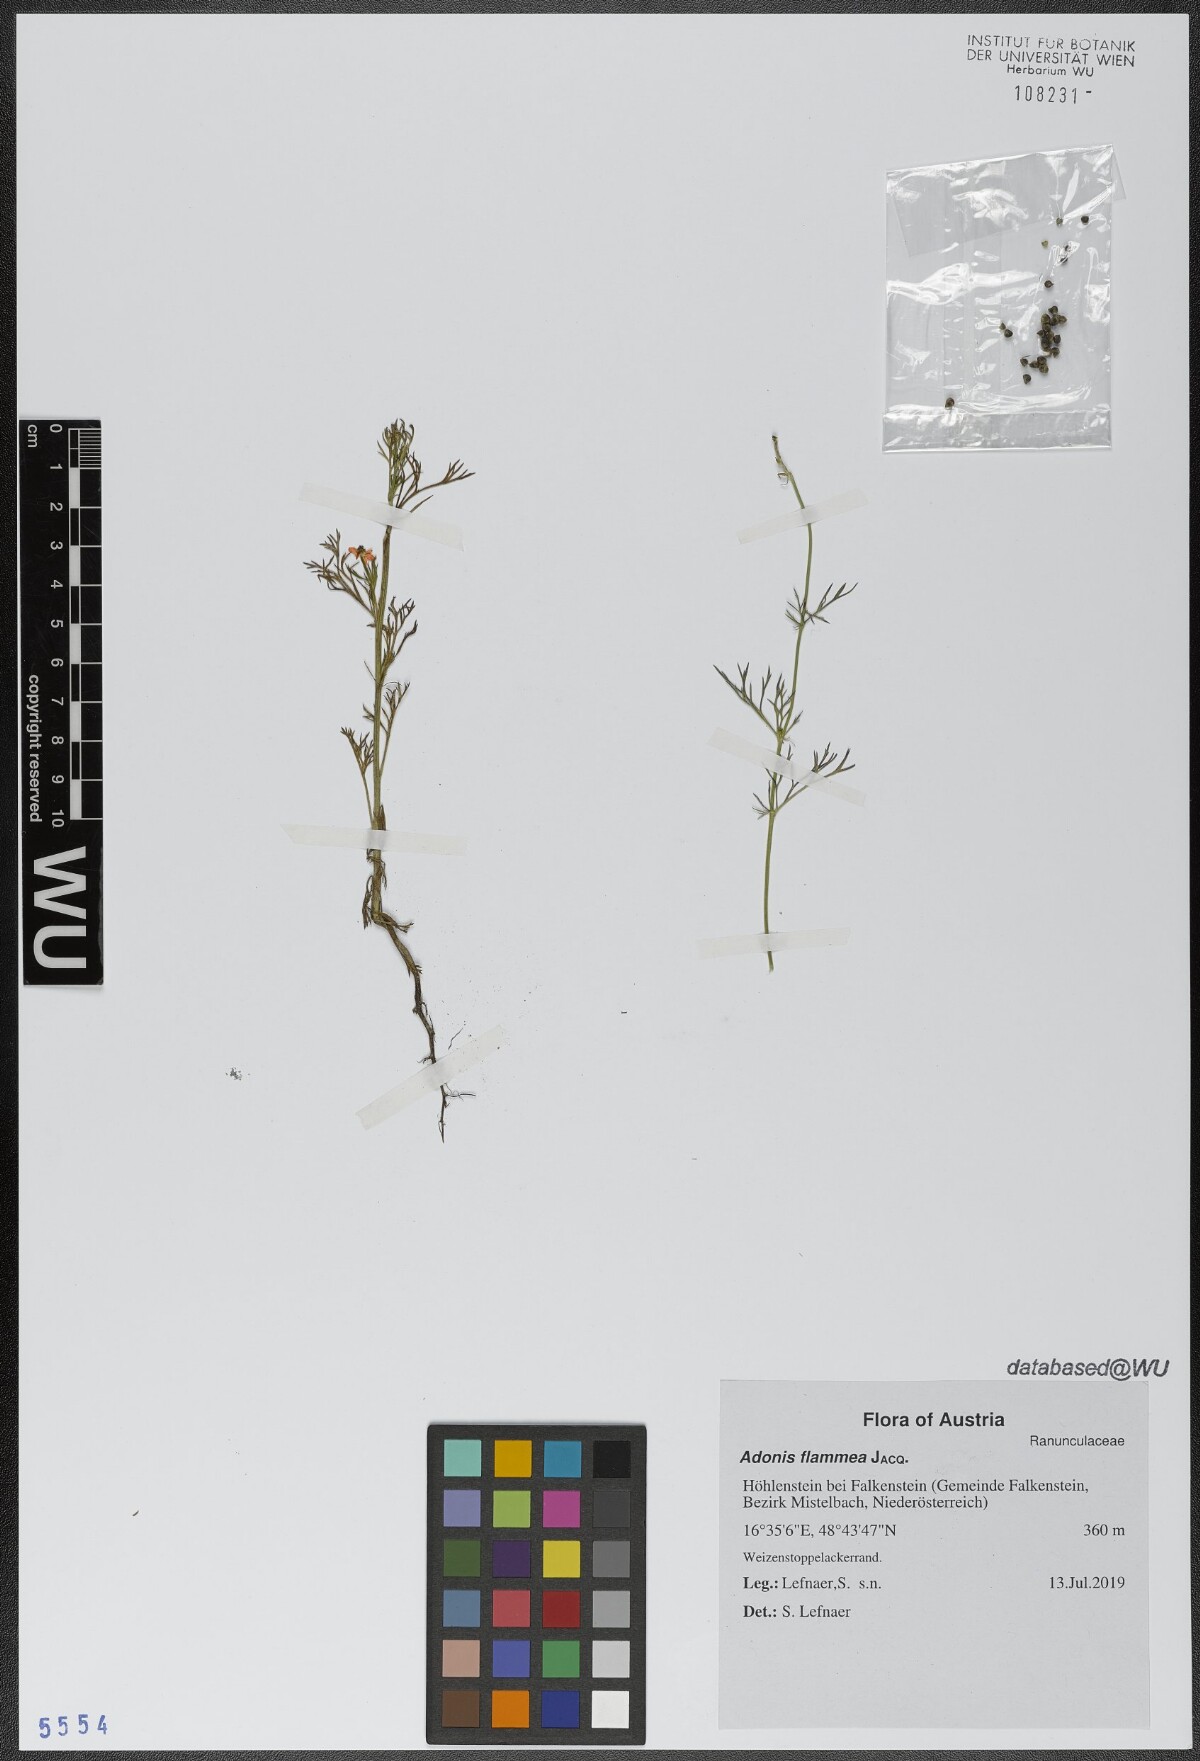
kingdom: Plantae
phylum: Tracheophyta
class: Magnoliopsida
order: Ranunculales
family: Ranunculaceae
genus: Adonis
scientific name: Adonis flammea
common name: Large pheasant's-eye
